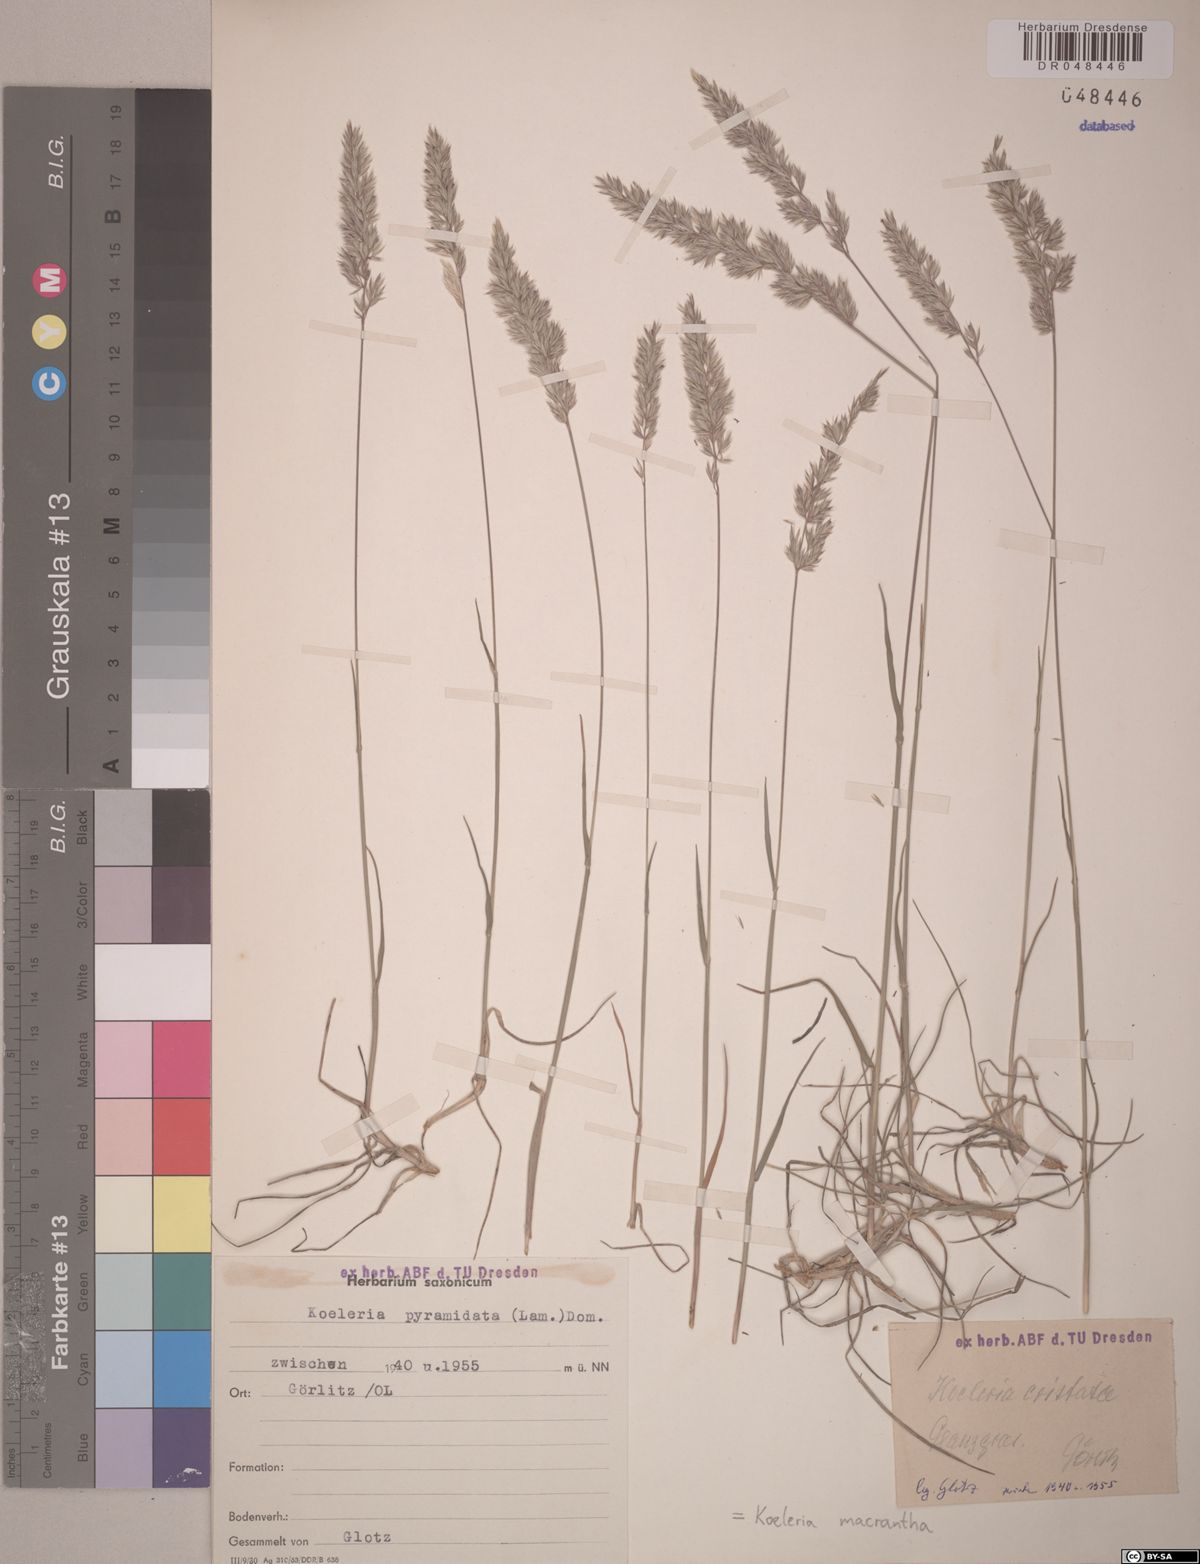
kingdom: Plantae
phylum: Tracheophyta
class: Liliopsida
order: Poales
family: Poaceae
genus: Koeleria
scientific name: Koeleria macrantha
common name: Crested hair-grass
